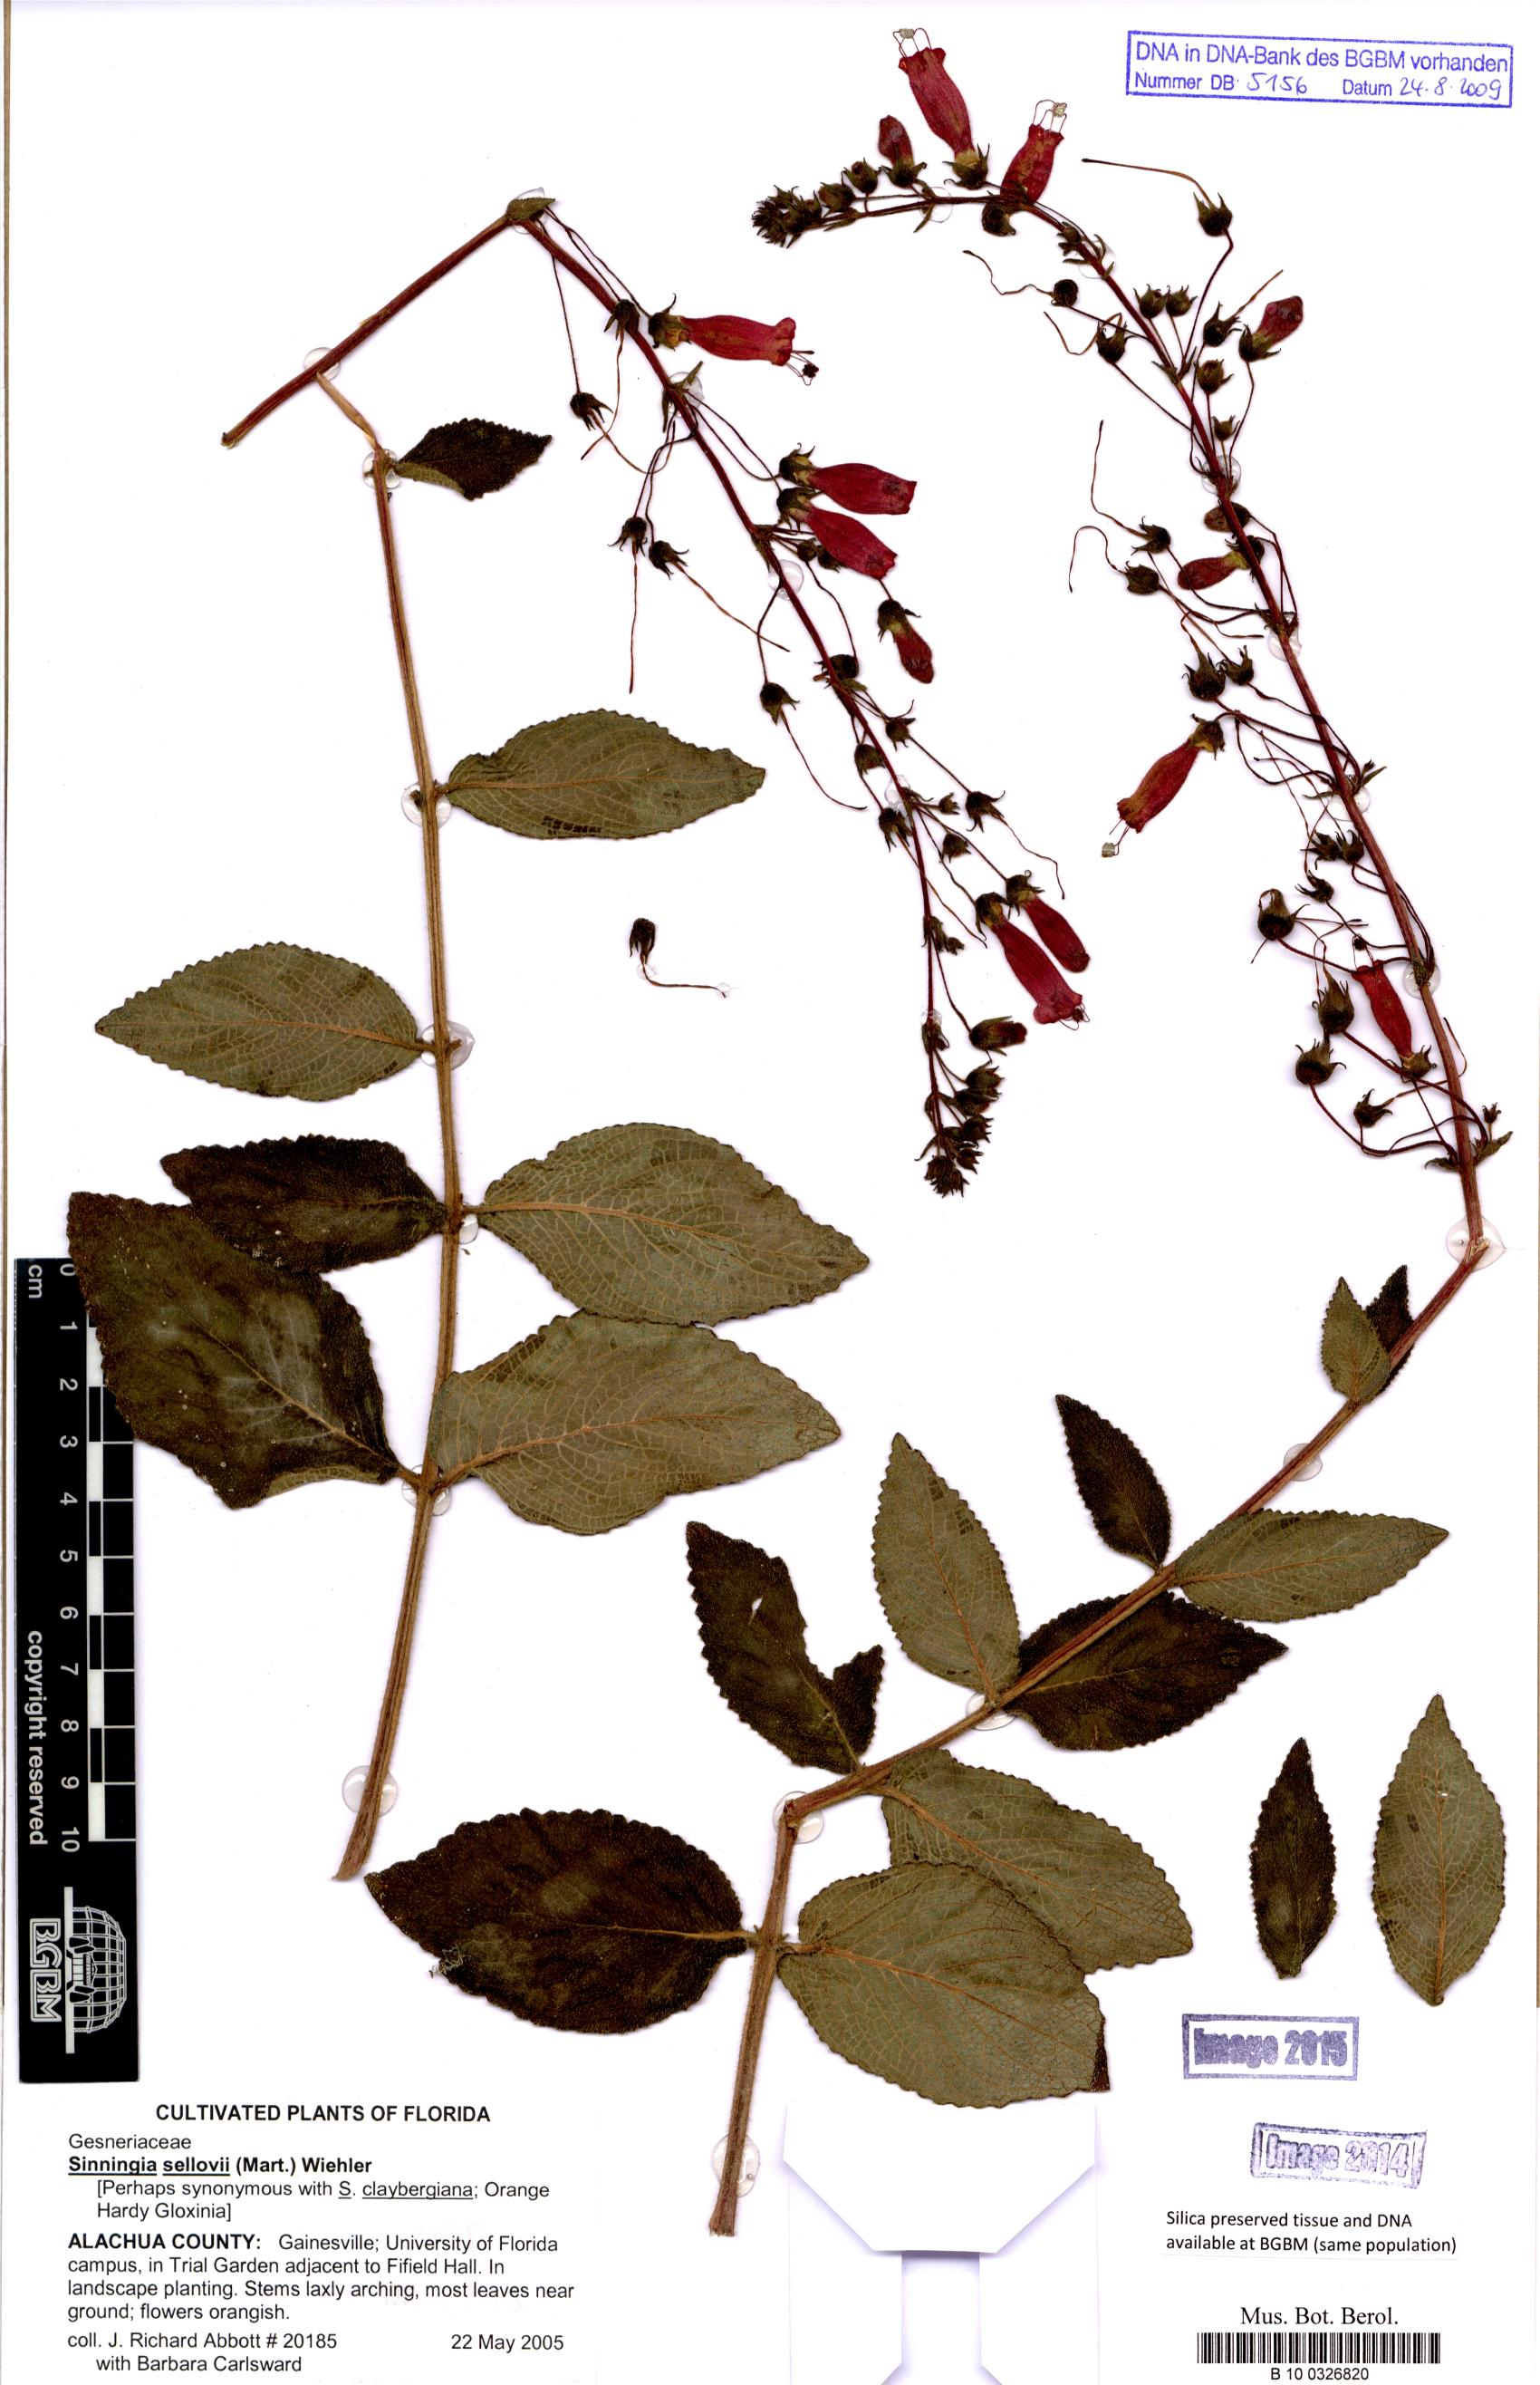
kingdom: Plantae
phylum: Tracheophyta
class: Magnoliopsida
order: Lamiales
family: Gesneriaceae
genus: Sinningia
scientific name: Sinningia sellovii
